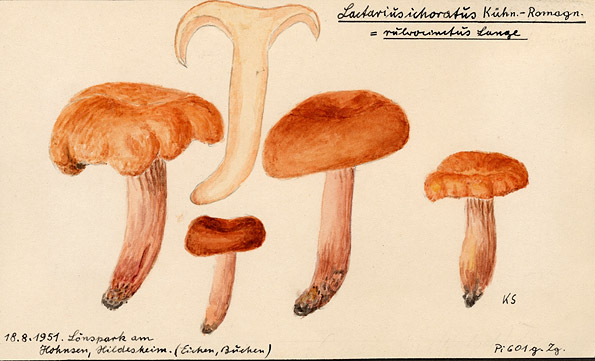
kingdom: Fungi
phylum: Basidiomycota
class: Agaricomycetes
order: Russulales
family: Russulaceae
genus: Lactarius
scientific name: Lactarius fulvissimus
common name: Tawny milkcap
